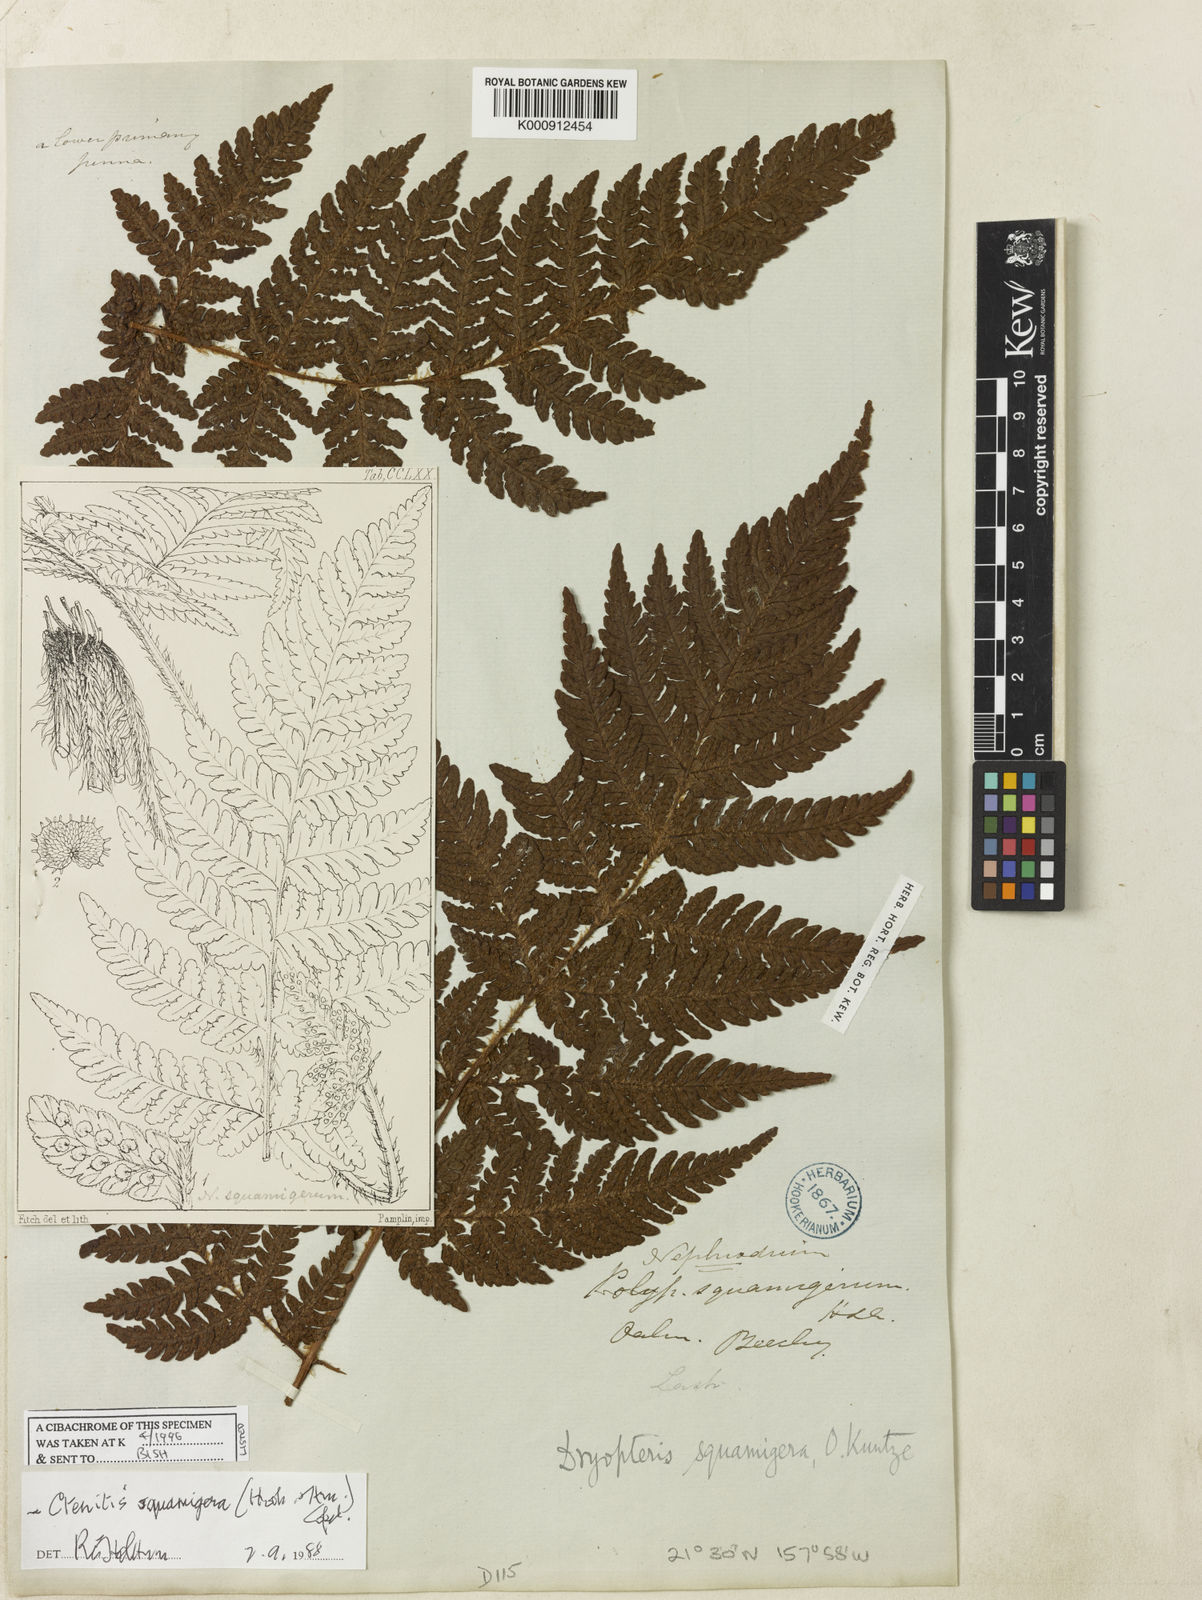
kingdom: Plantae
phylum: Tracheophyta
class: Polypodiopsida
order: Polypodiales
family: Dryopteridaceae
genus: Ctenitis
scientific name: Ctenitis squamigera
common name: Pacific lacefern
